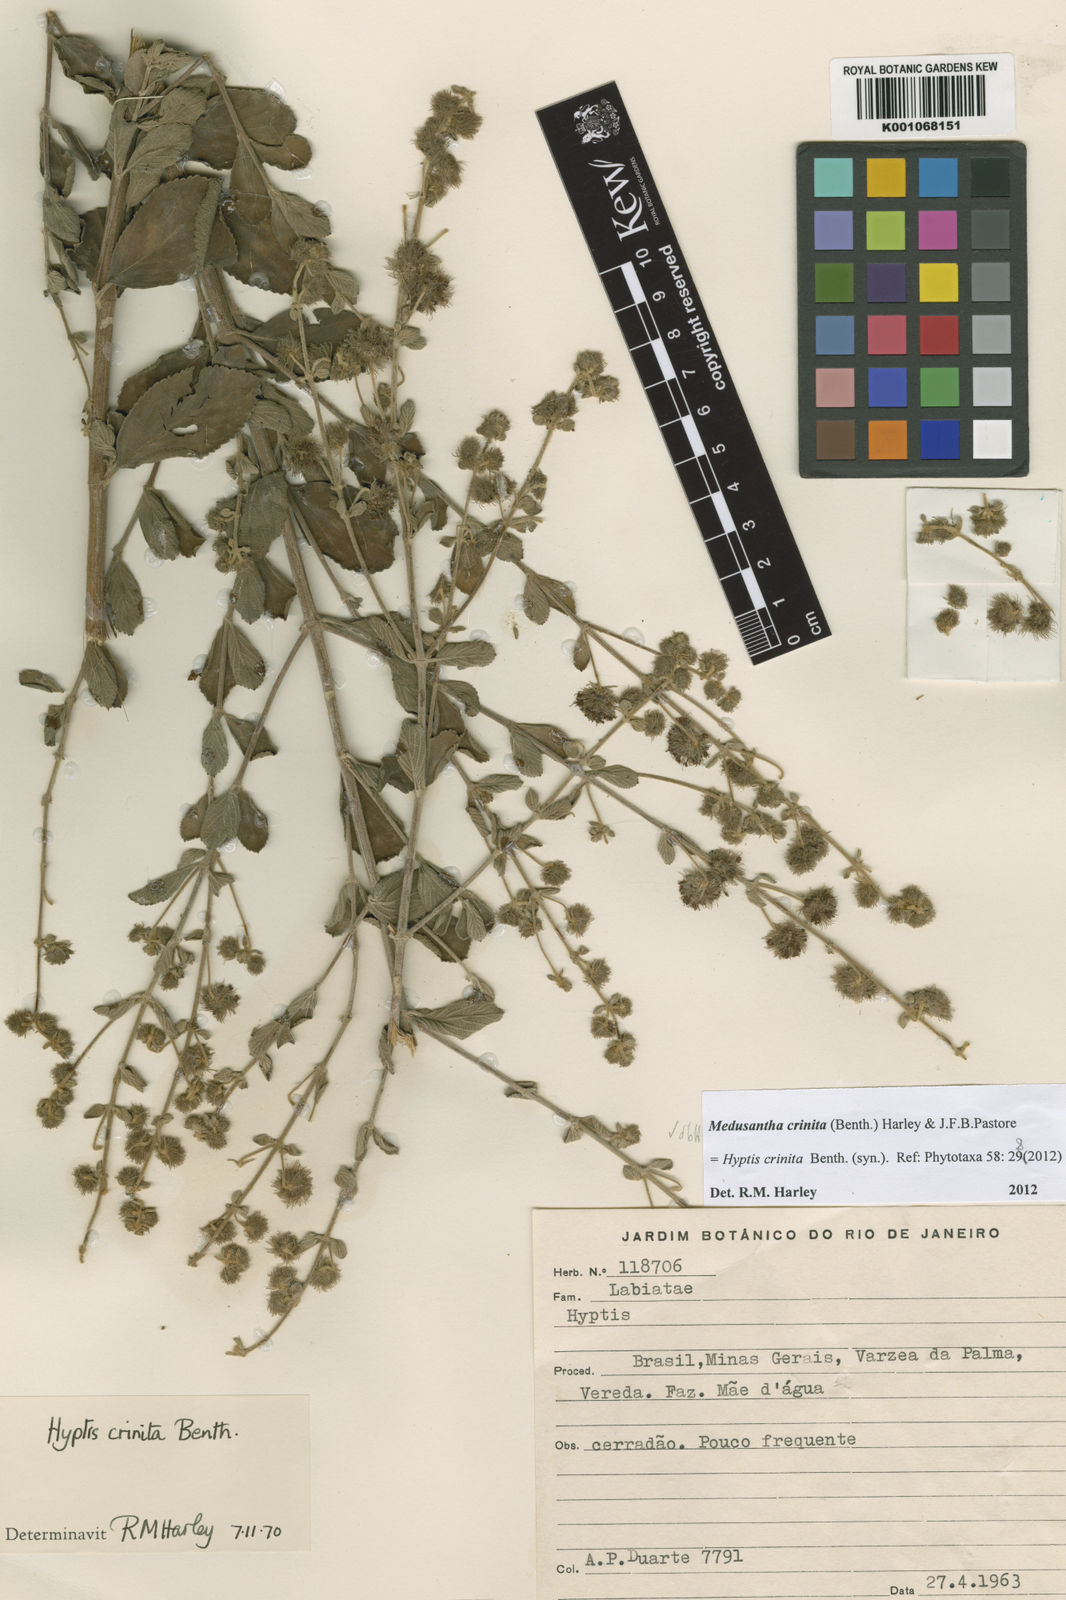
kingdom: Plantae
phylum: Tracheophyta
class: Magnoliopsida
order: Lamiales
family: Lamiaceae
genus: Medusantha
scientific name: Medusantha crinita
